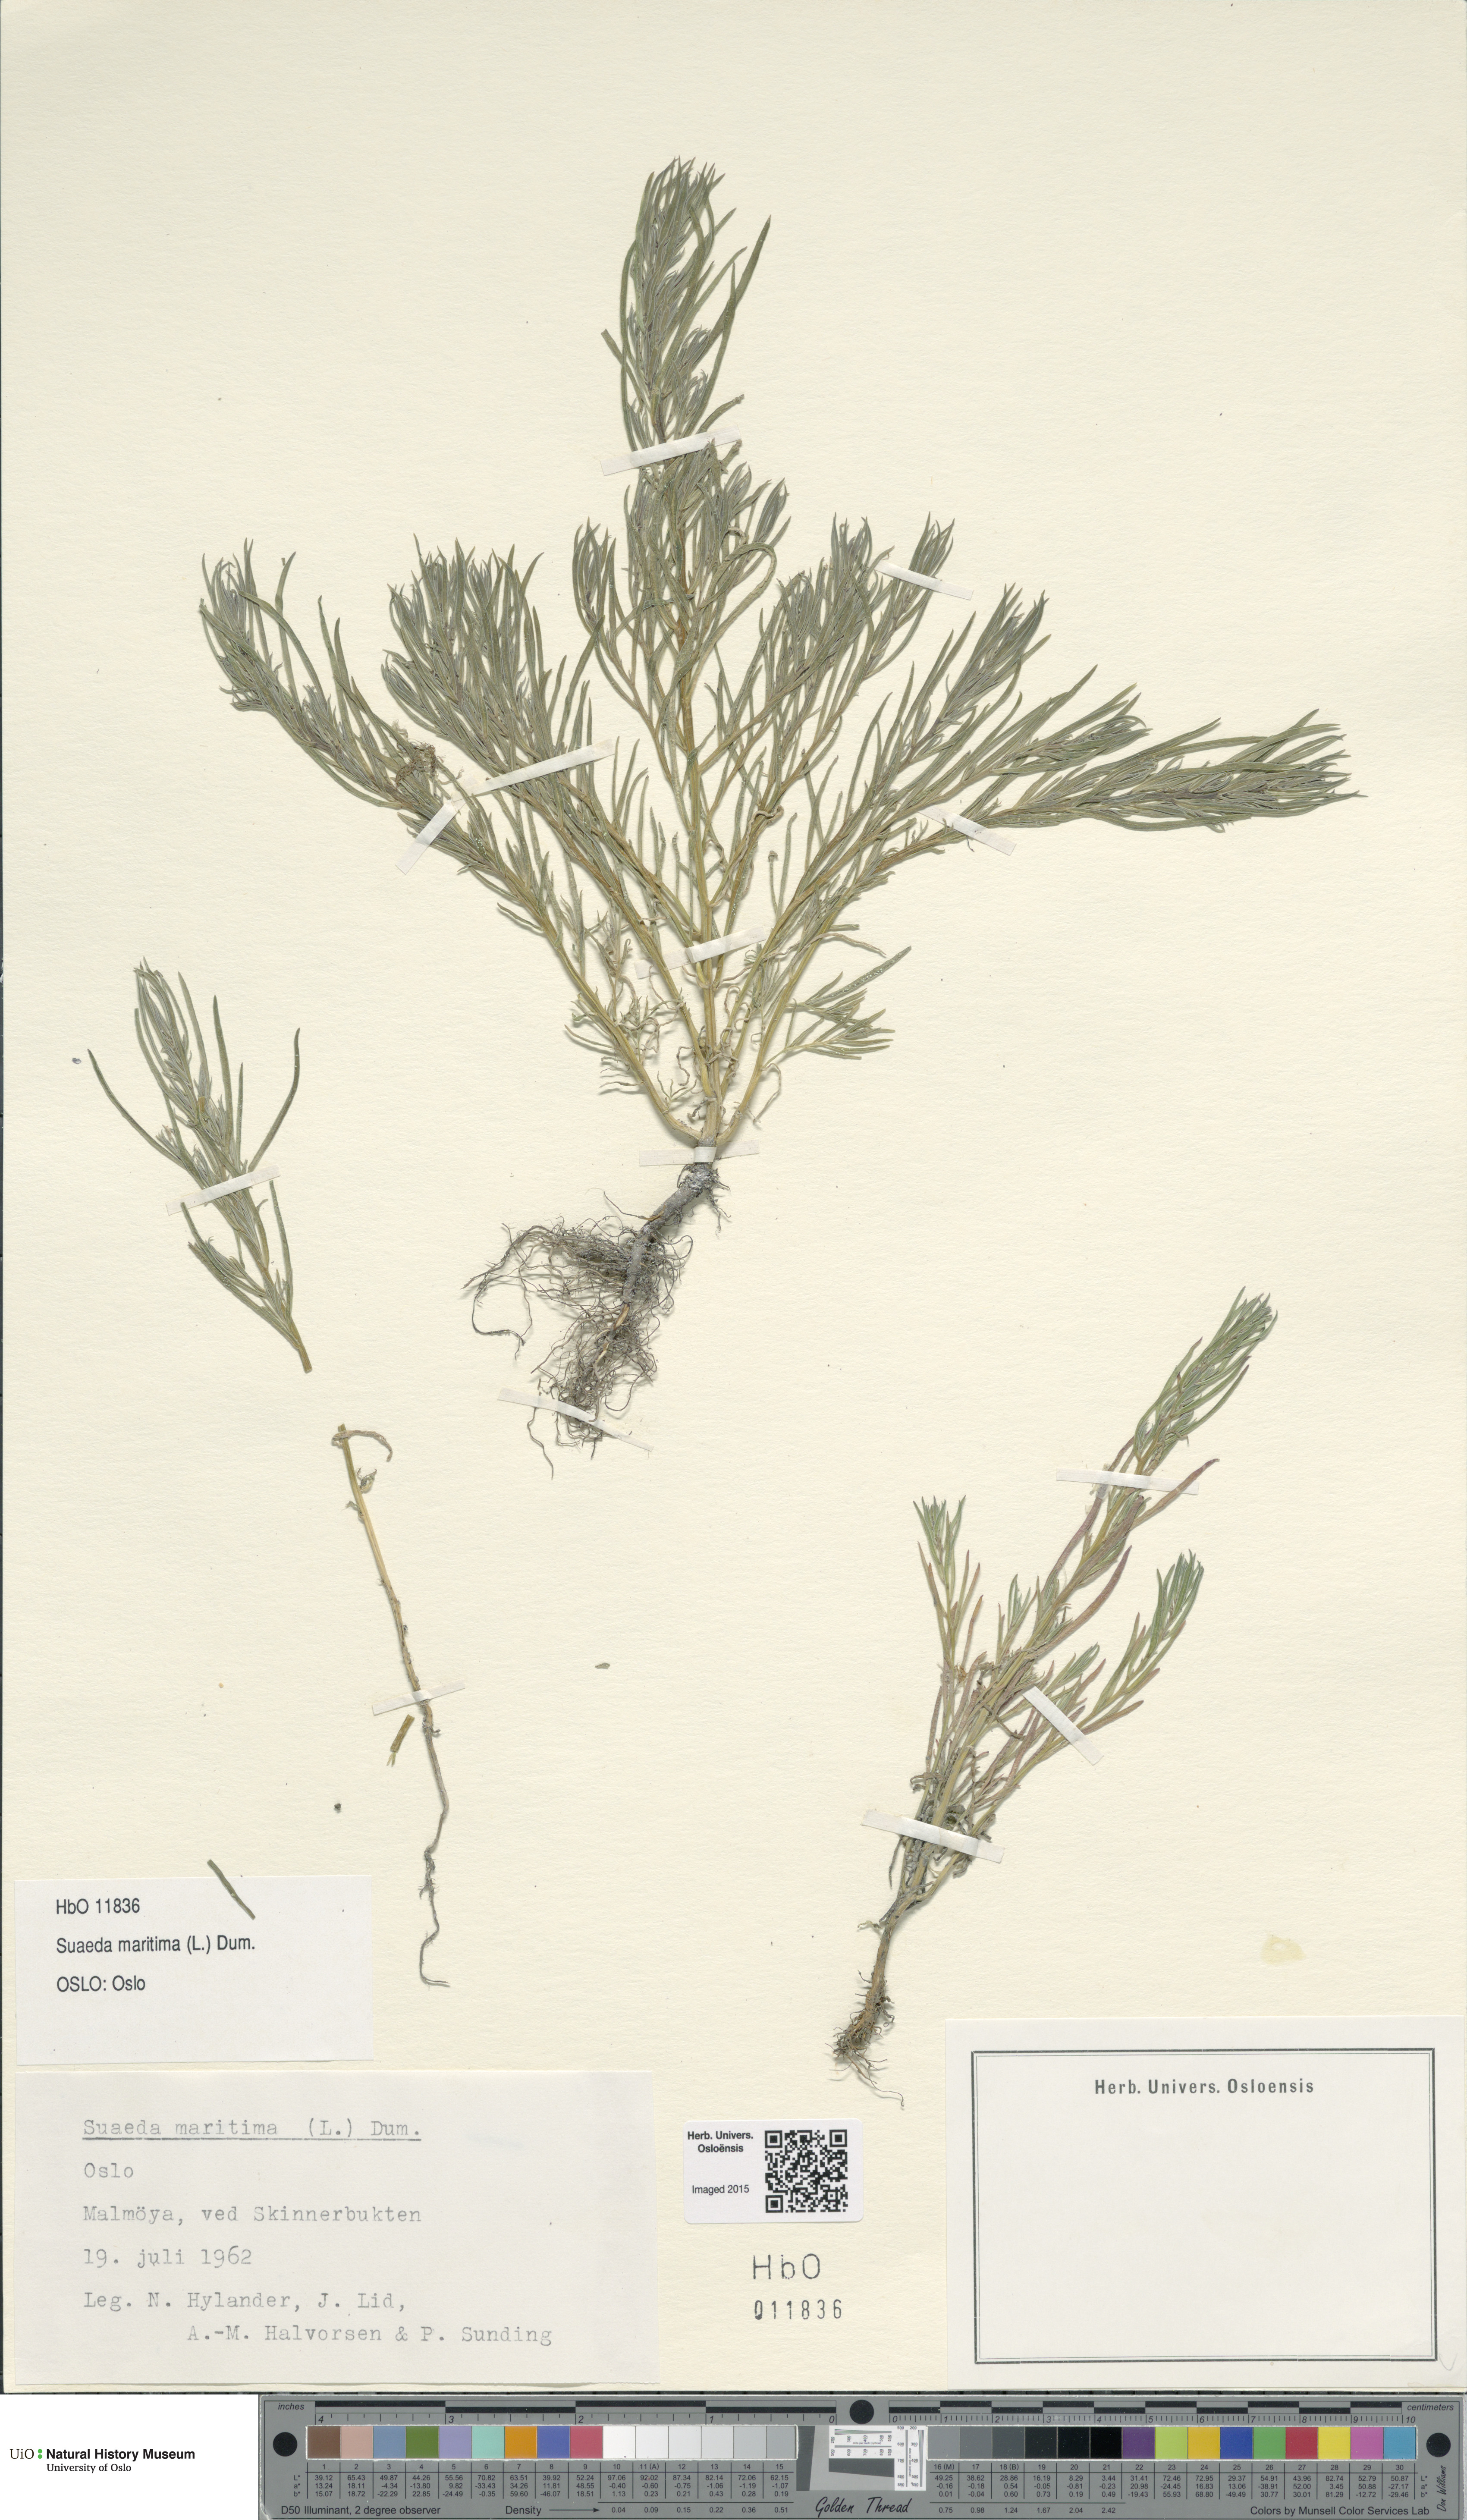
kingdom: Plantae
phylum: Tracheophyta
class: Magnoliopsida
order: Caryophyllales
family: Amaranthaceae
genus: Suaeda
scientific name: Suaeda maritima
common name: Annual sea-blite
